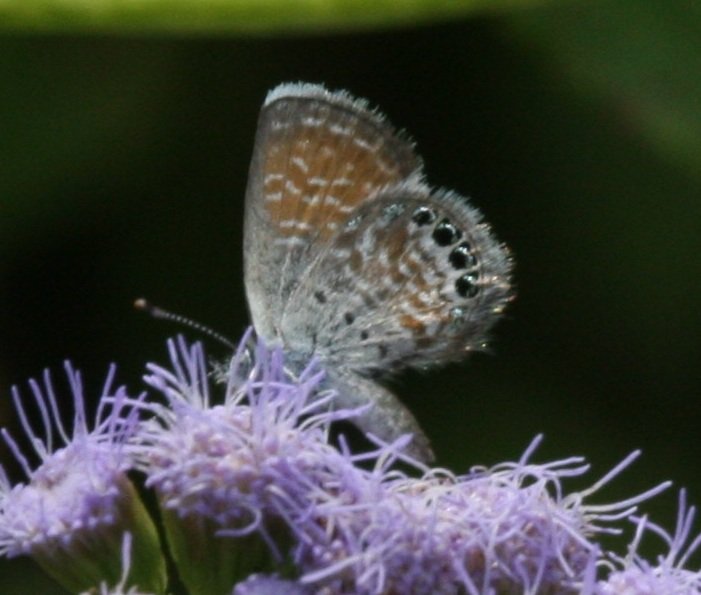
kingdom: Animalia
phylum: Arthropoda
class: Insecta
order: Lepidoptera
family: Lycaenidae
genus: Brephidium
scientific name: Brephidium exilis
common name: Western Pygmy-Blue
